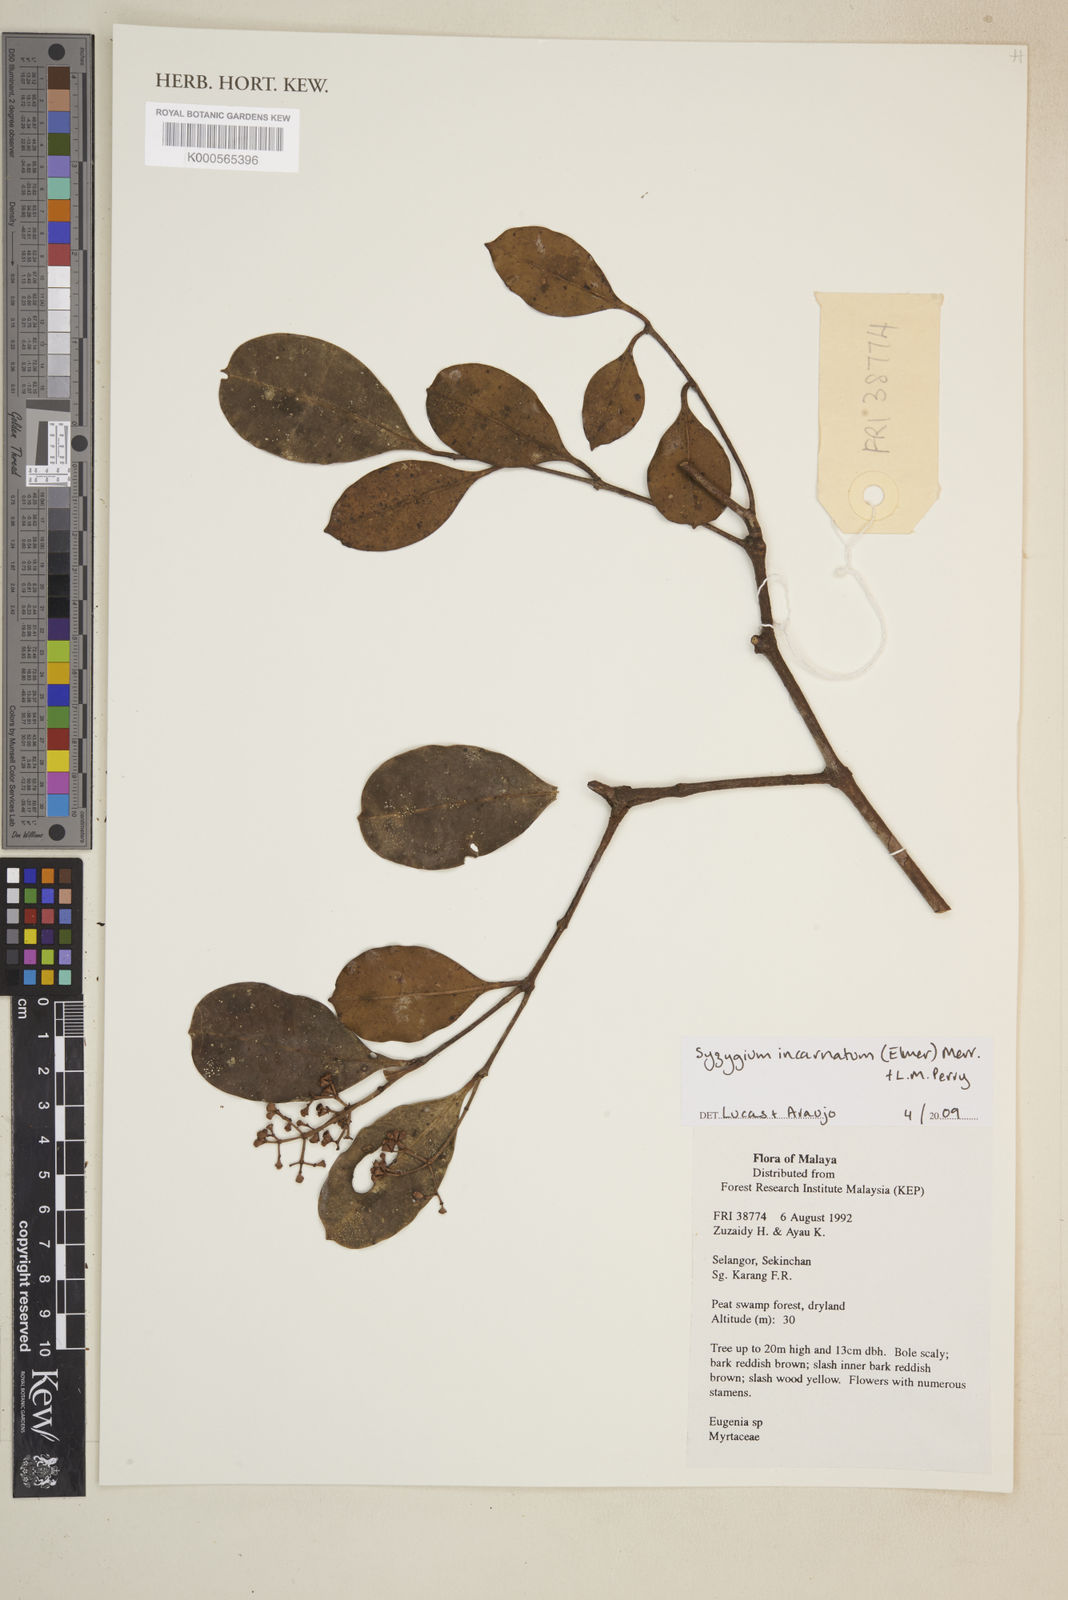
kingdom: Plantae
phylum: Tracheophyta
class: Magnoliopsida
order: Myrtales
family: Myrtaceae
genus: Syzygium
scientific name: Syzygium incarnatum
